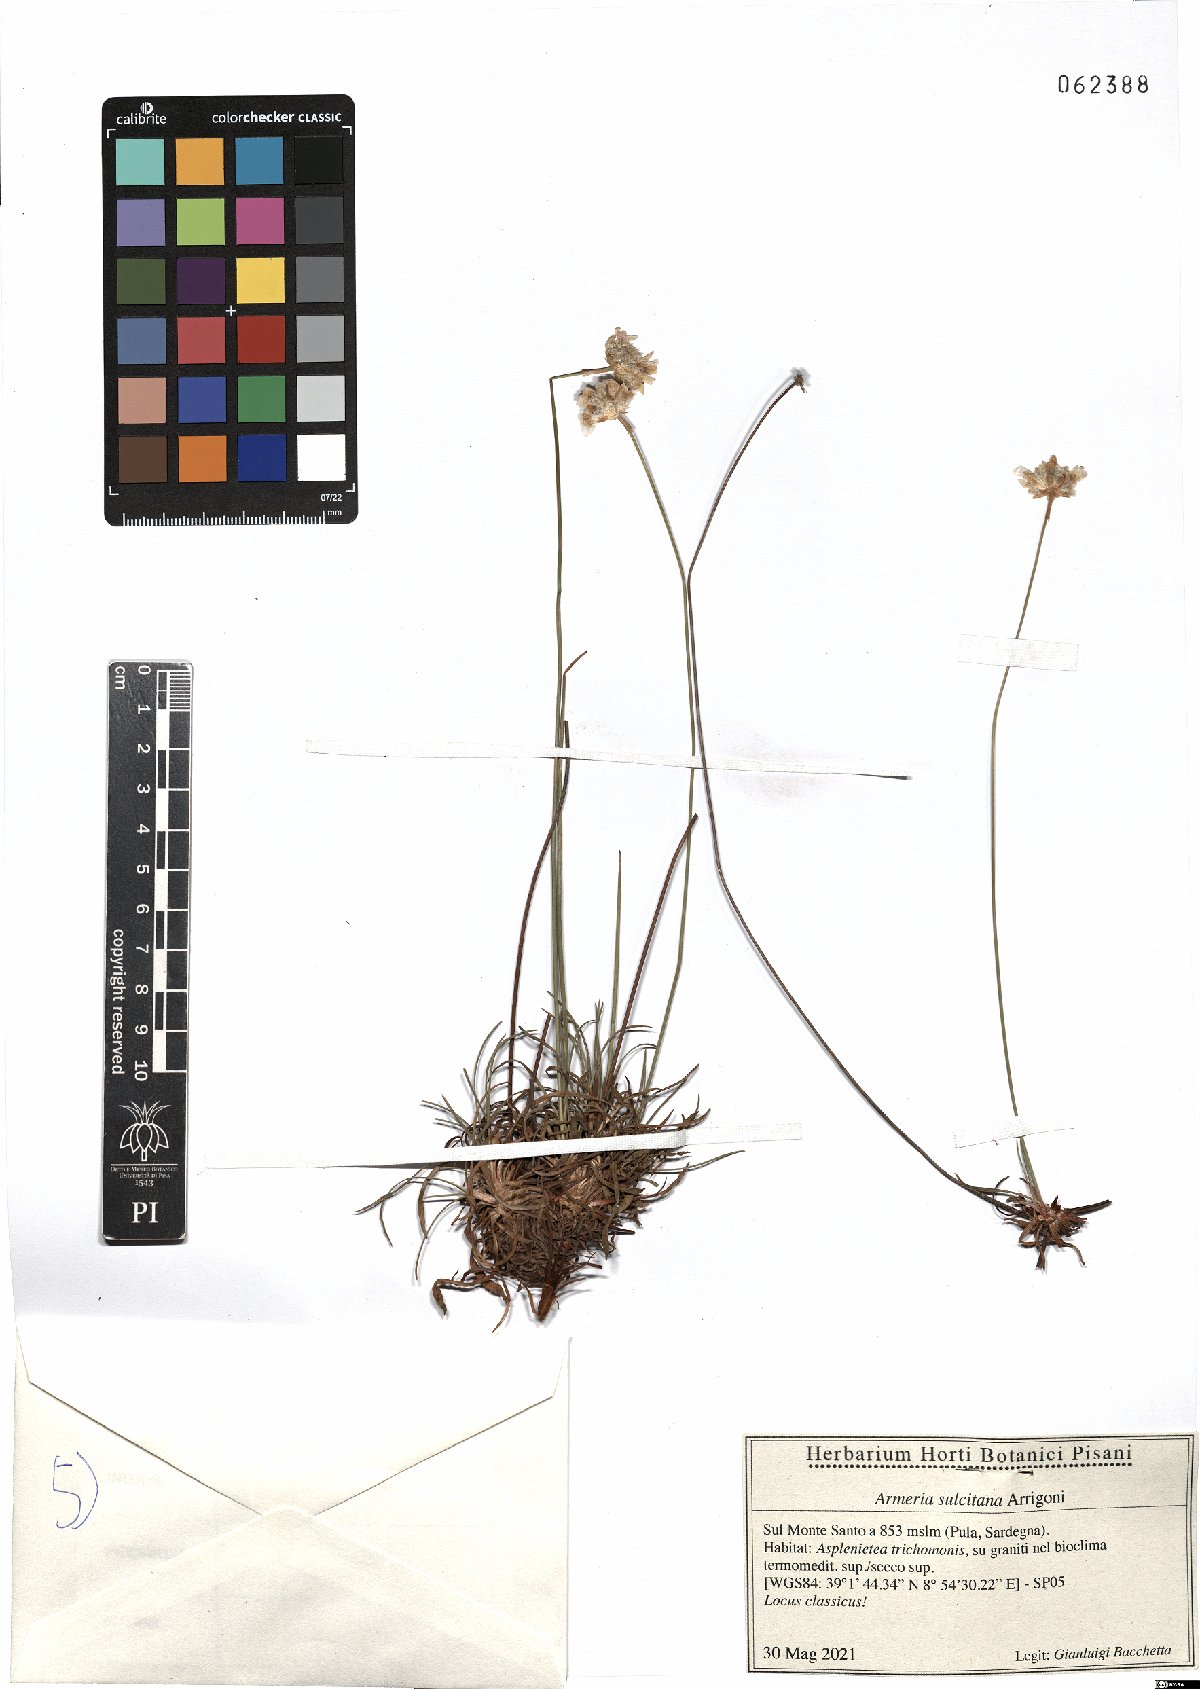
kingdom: Plantae
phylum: Tracheophyta
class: Magnoliopsida
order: Caryophyllales
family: Plumbaginaceae
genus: Armeria
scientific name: Armeria sulcitana
